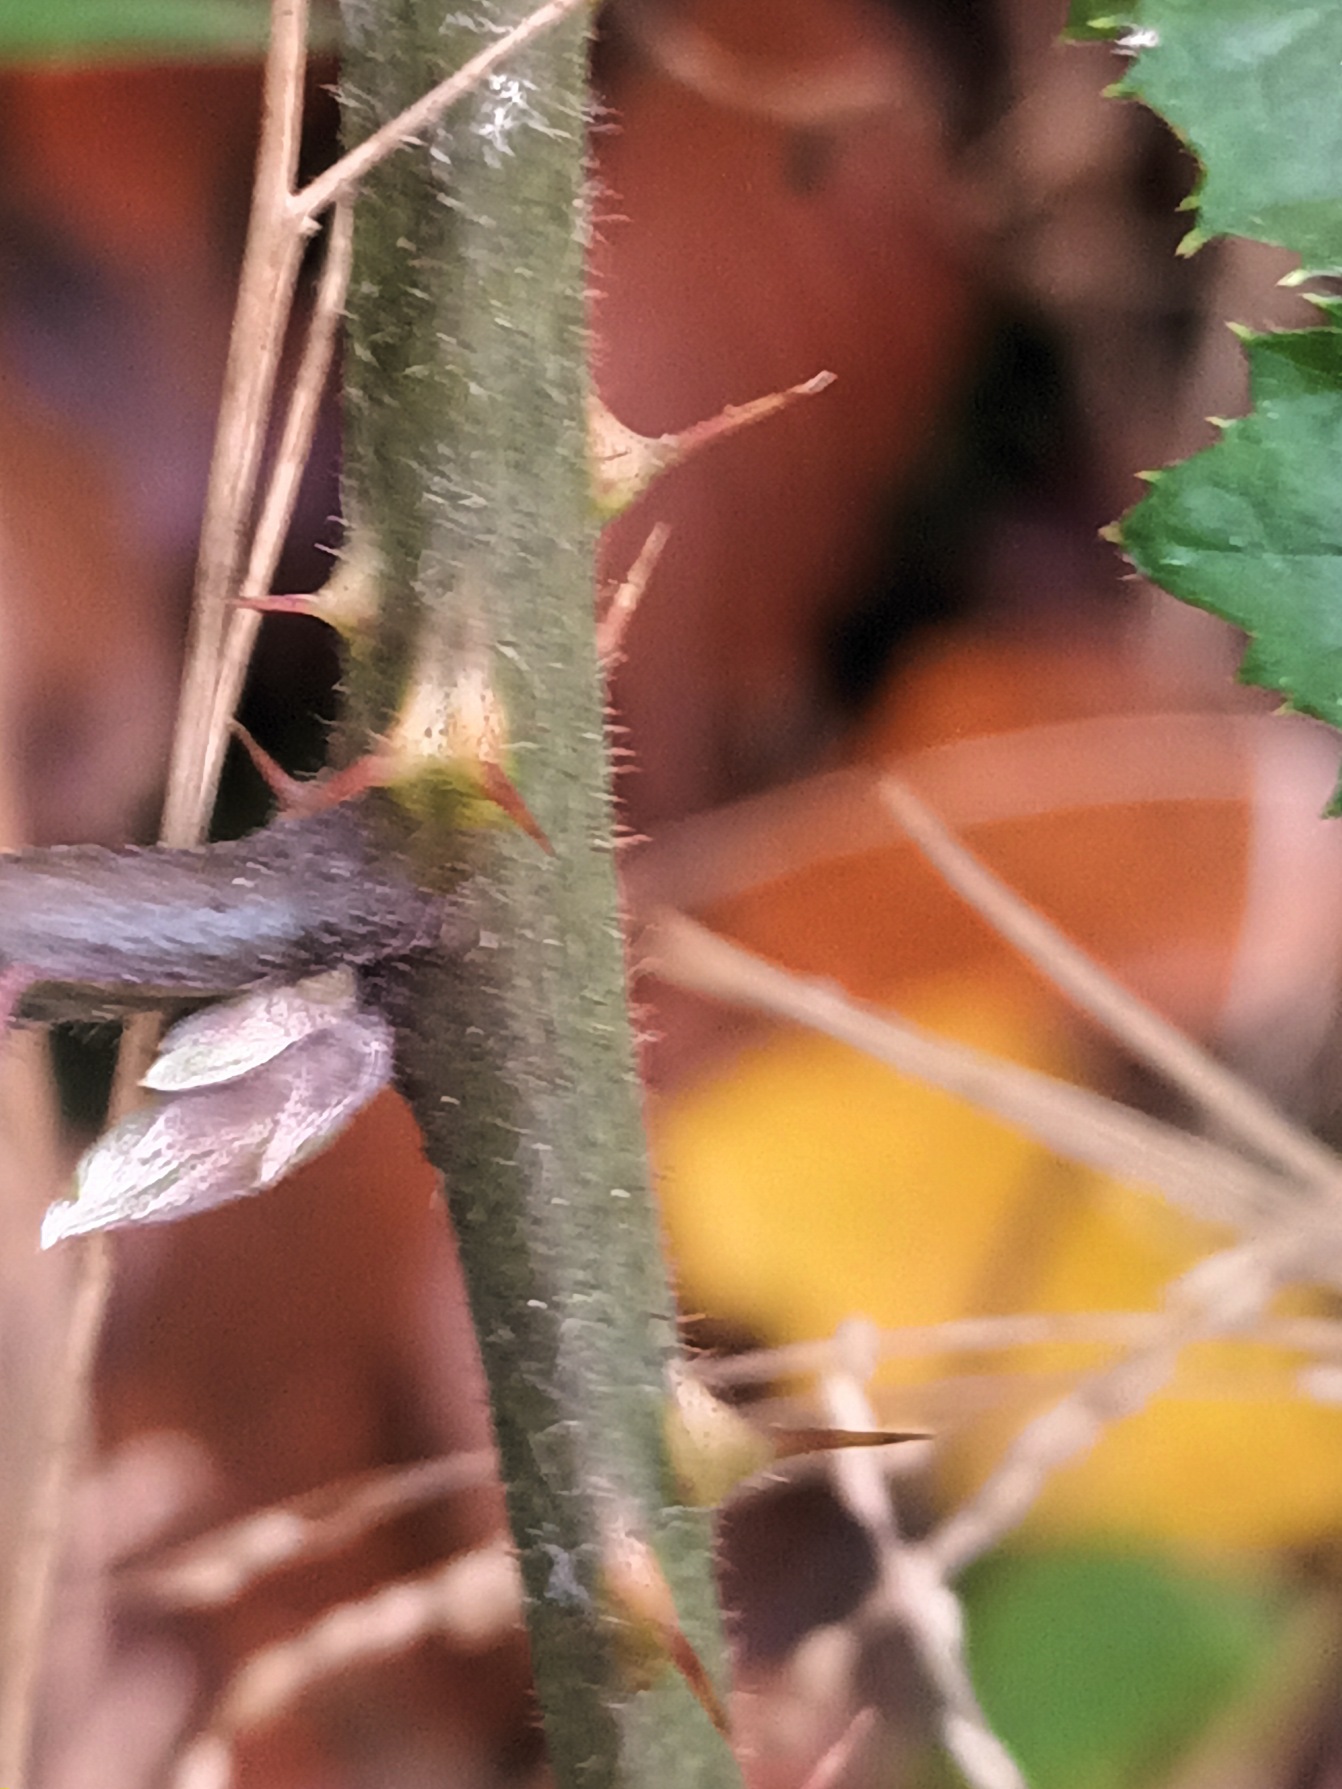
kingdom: Plantae
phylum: Tracheophyta
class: Magnoliopsida
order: Rosales
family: Rosaceae
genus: Rubus
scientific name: Rubus radula
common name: Rasperu brombær
